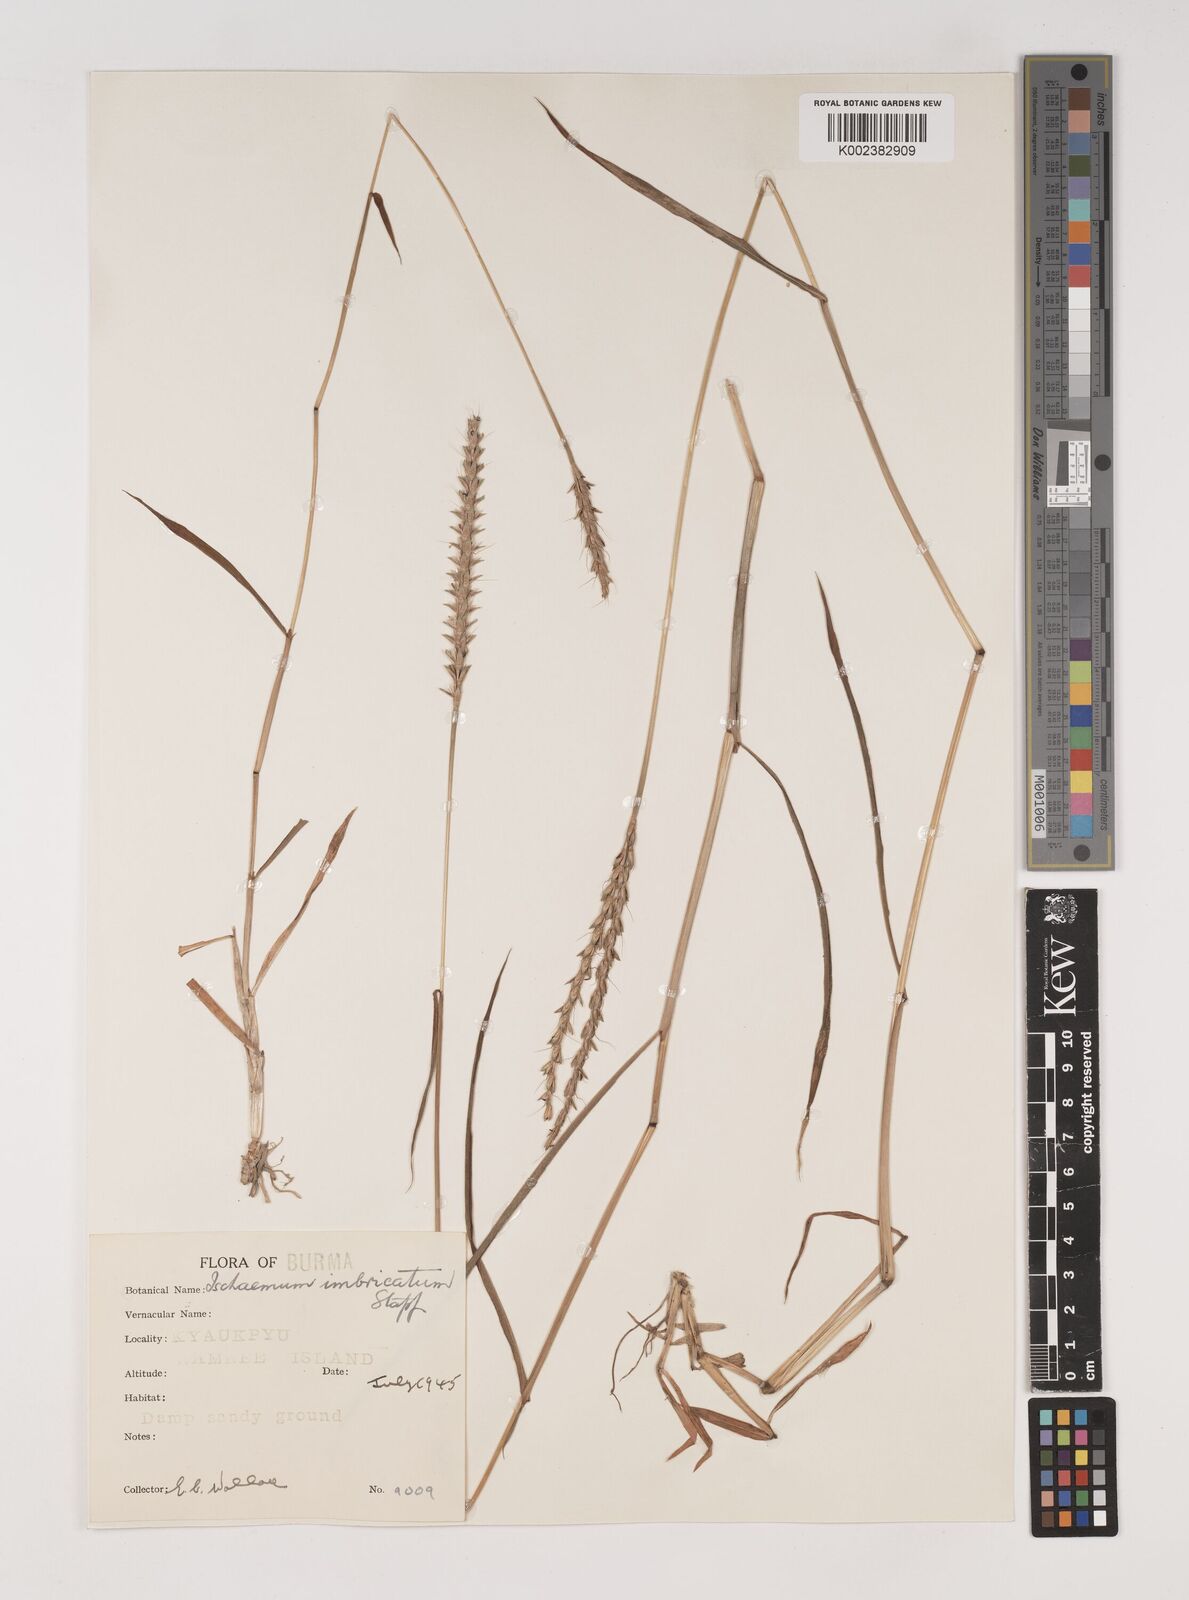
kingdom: Plantae
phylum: Tracheophyta
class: Liliopsida
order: Poales
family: Poaceae
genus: Ischaemum
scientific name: Ischaemum
